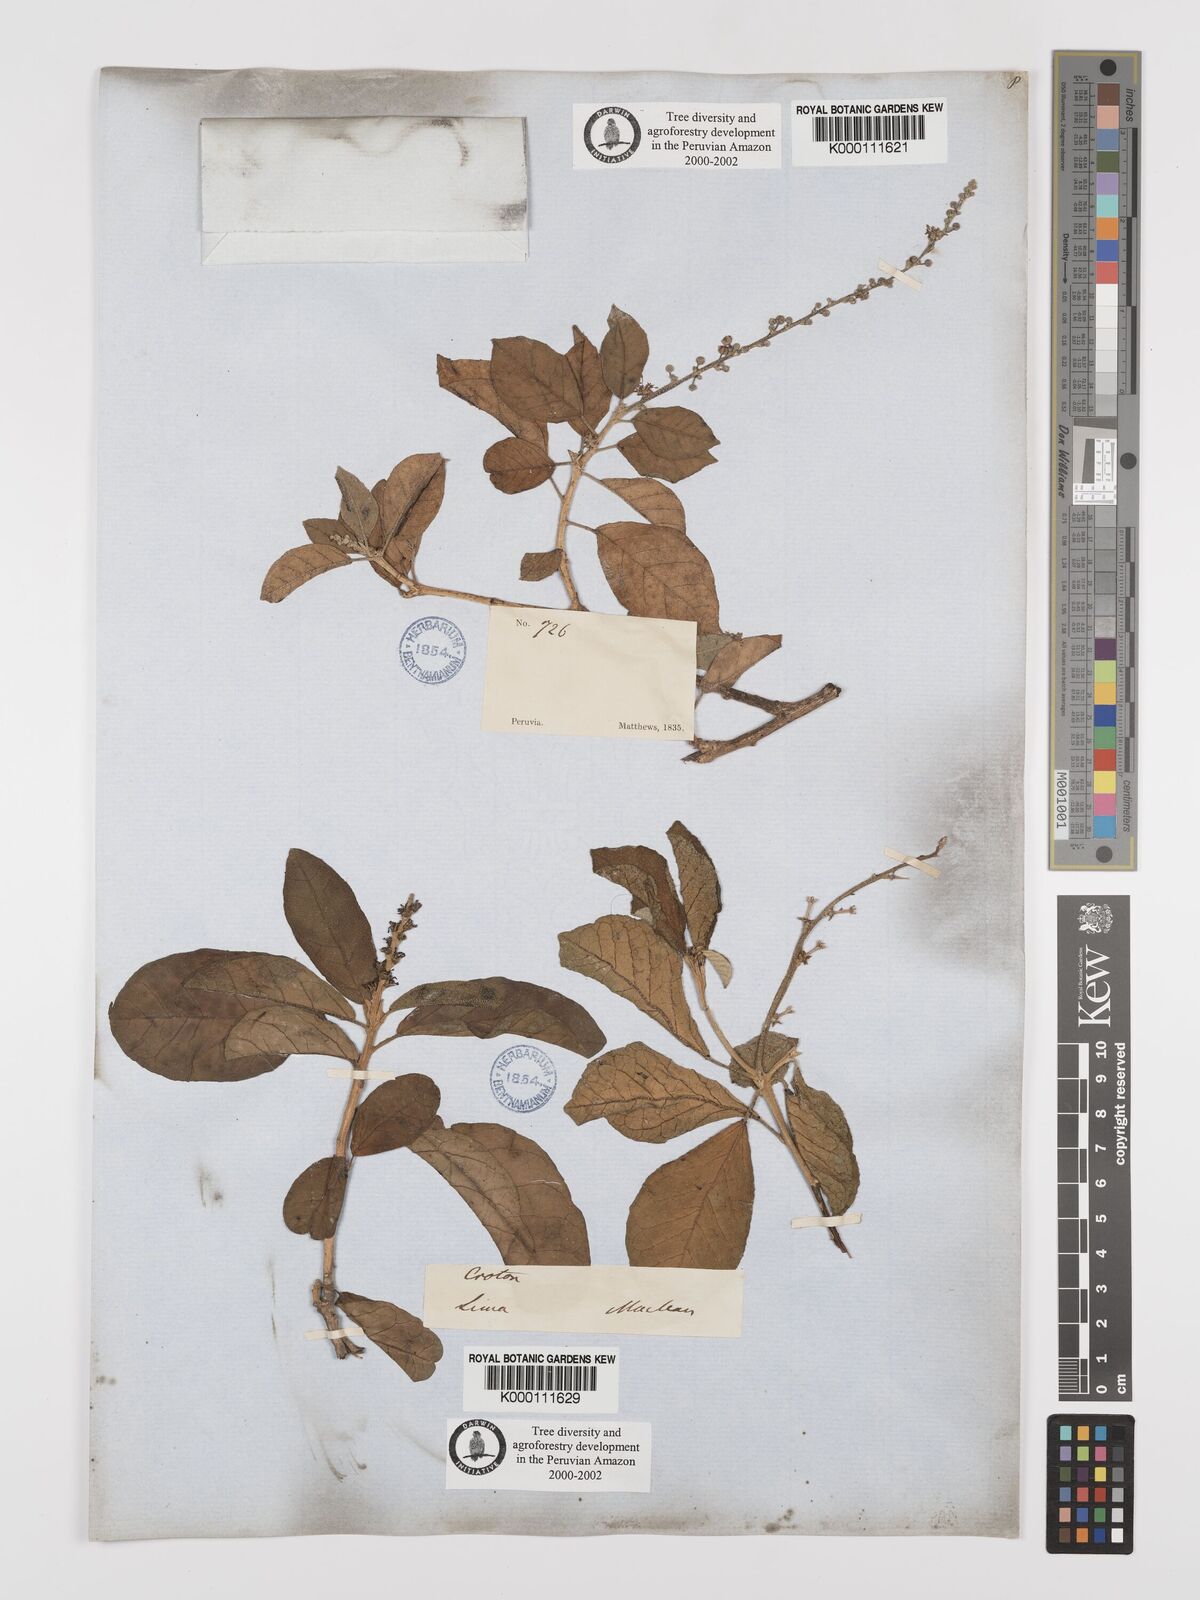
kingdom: Plantae
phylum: Tracheophyta
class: Magnoliopsida
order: Malpighiales
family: Euphorbiaceae
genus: Croton
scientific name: Croton alnifolius
